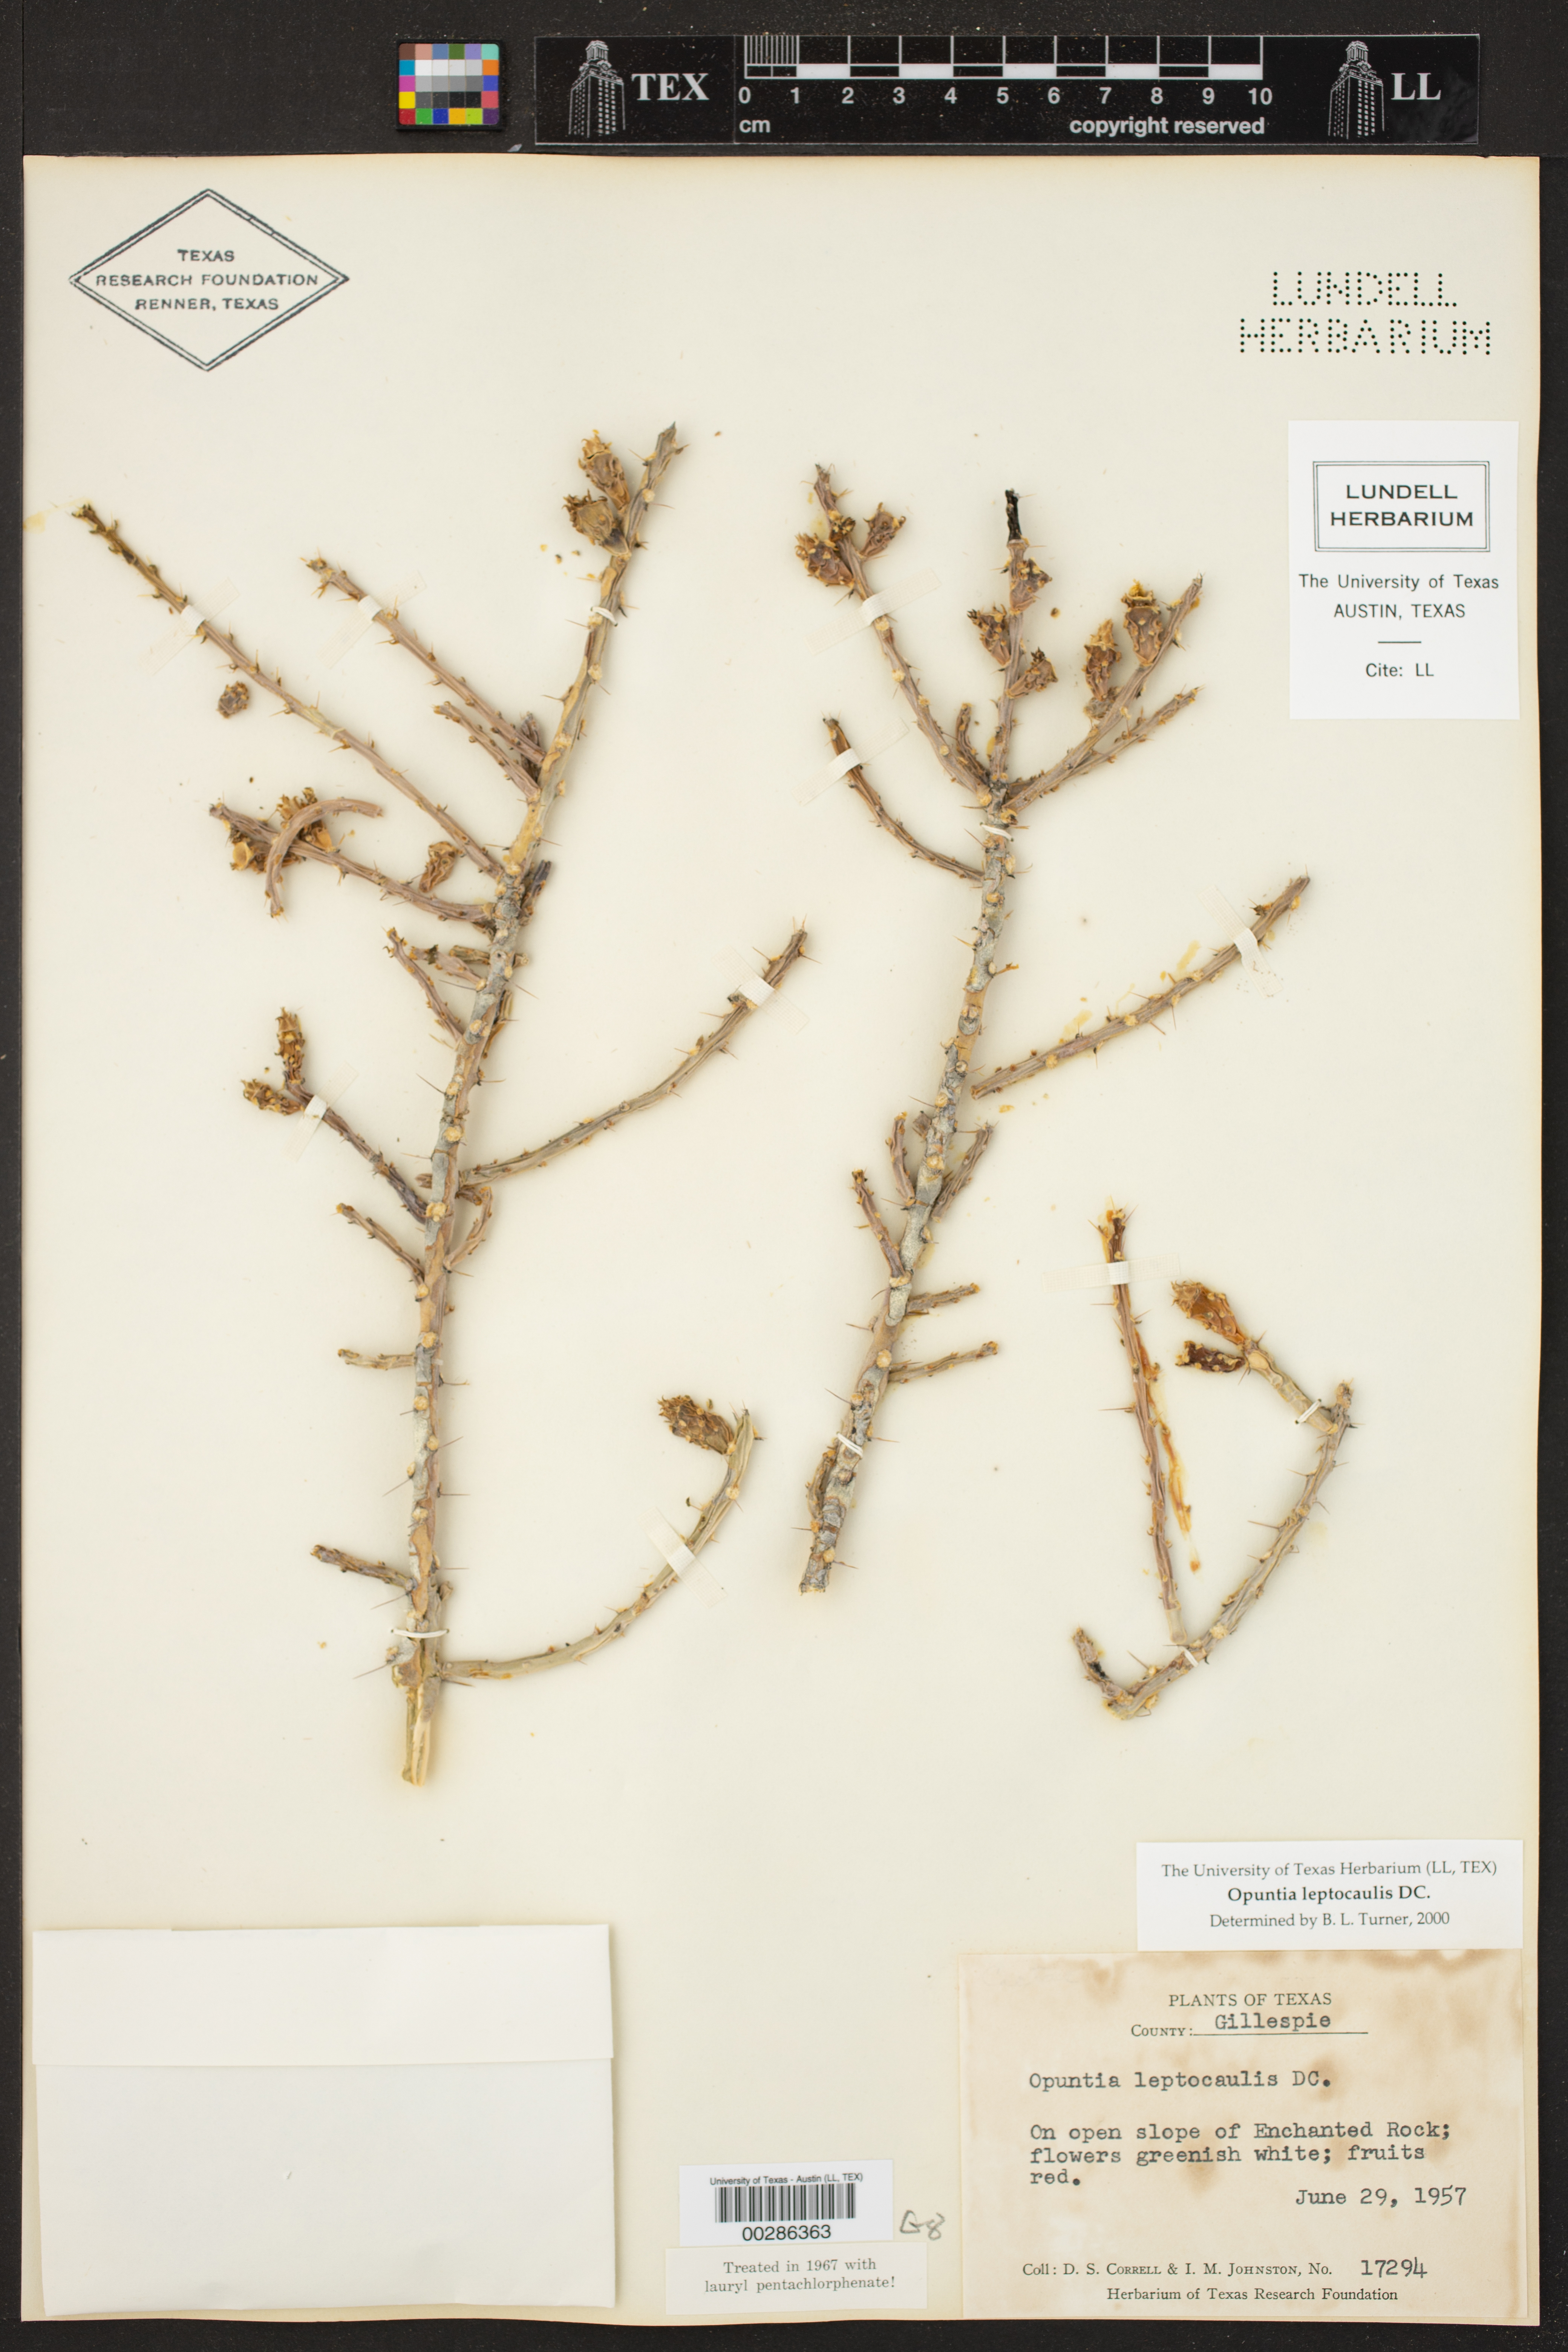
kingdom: Plantae
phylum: Tracheophyta
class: Magnoliopsida
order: Caryophyllales
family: Cactaceae
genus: Cylindropuntia
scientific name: Cylindropuntia leptocaulis
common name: Christmas cactus
